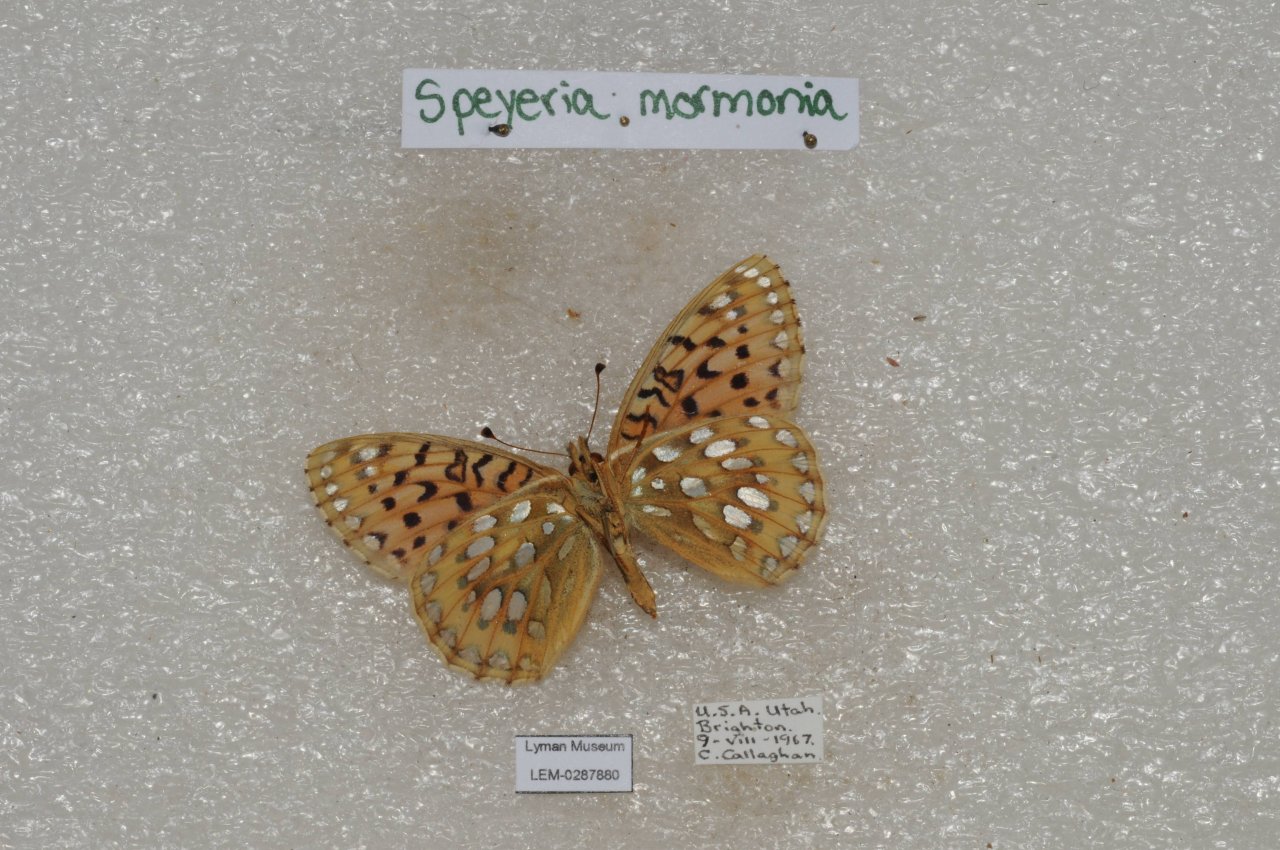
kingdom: Animalia
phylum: Arthropoda
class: Insecta
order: Lepidoptera
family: Nymphalidae
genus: Speyeria
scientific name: Speyeria mormonia
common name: Mormon Fritillary
